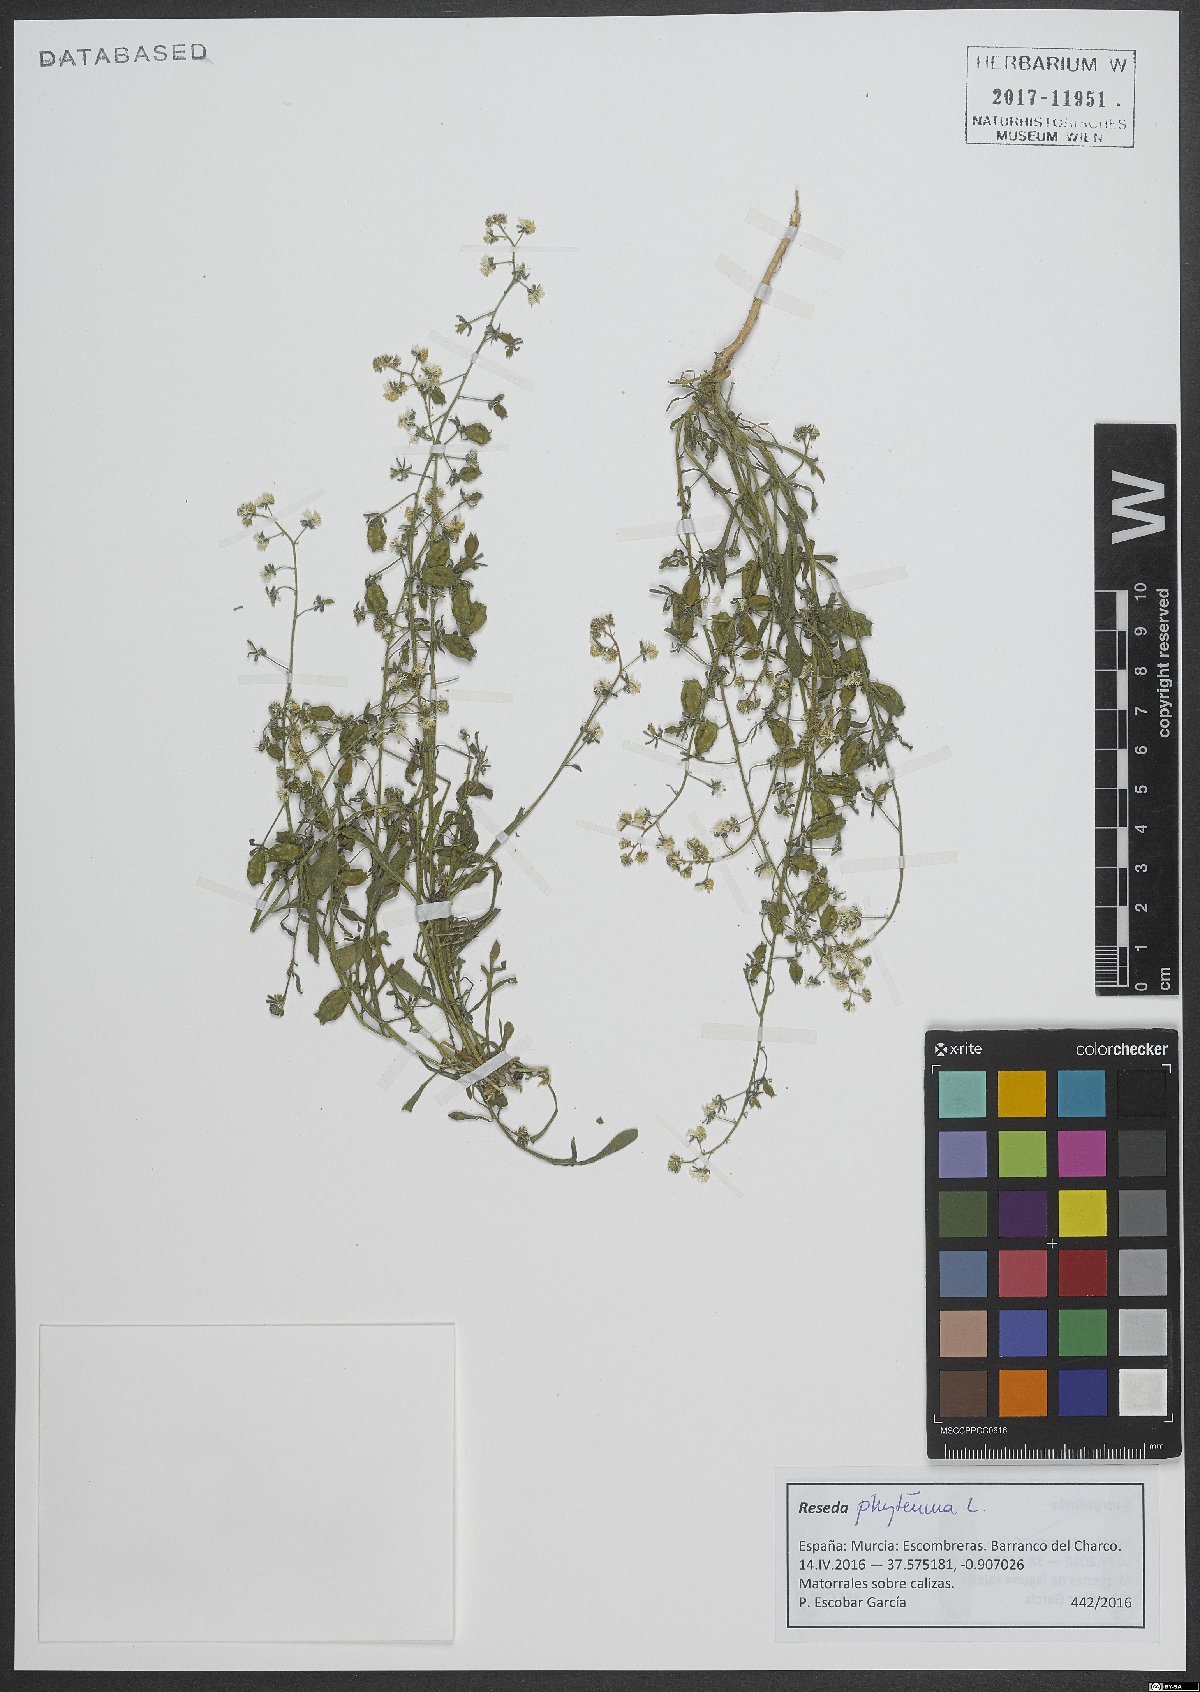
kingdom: Plantae
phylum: Tracheophyta
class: Magnoliopsida
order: Brassicales
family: Resedaceae
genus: Reseda
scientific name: Reseda phyteuma
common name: Corn mignonette
